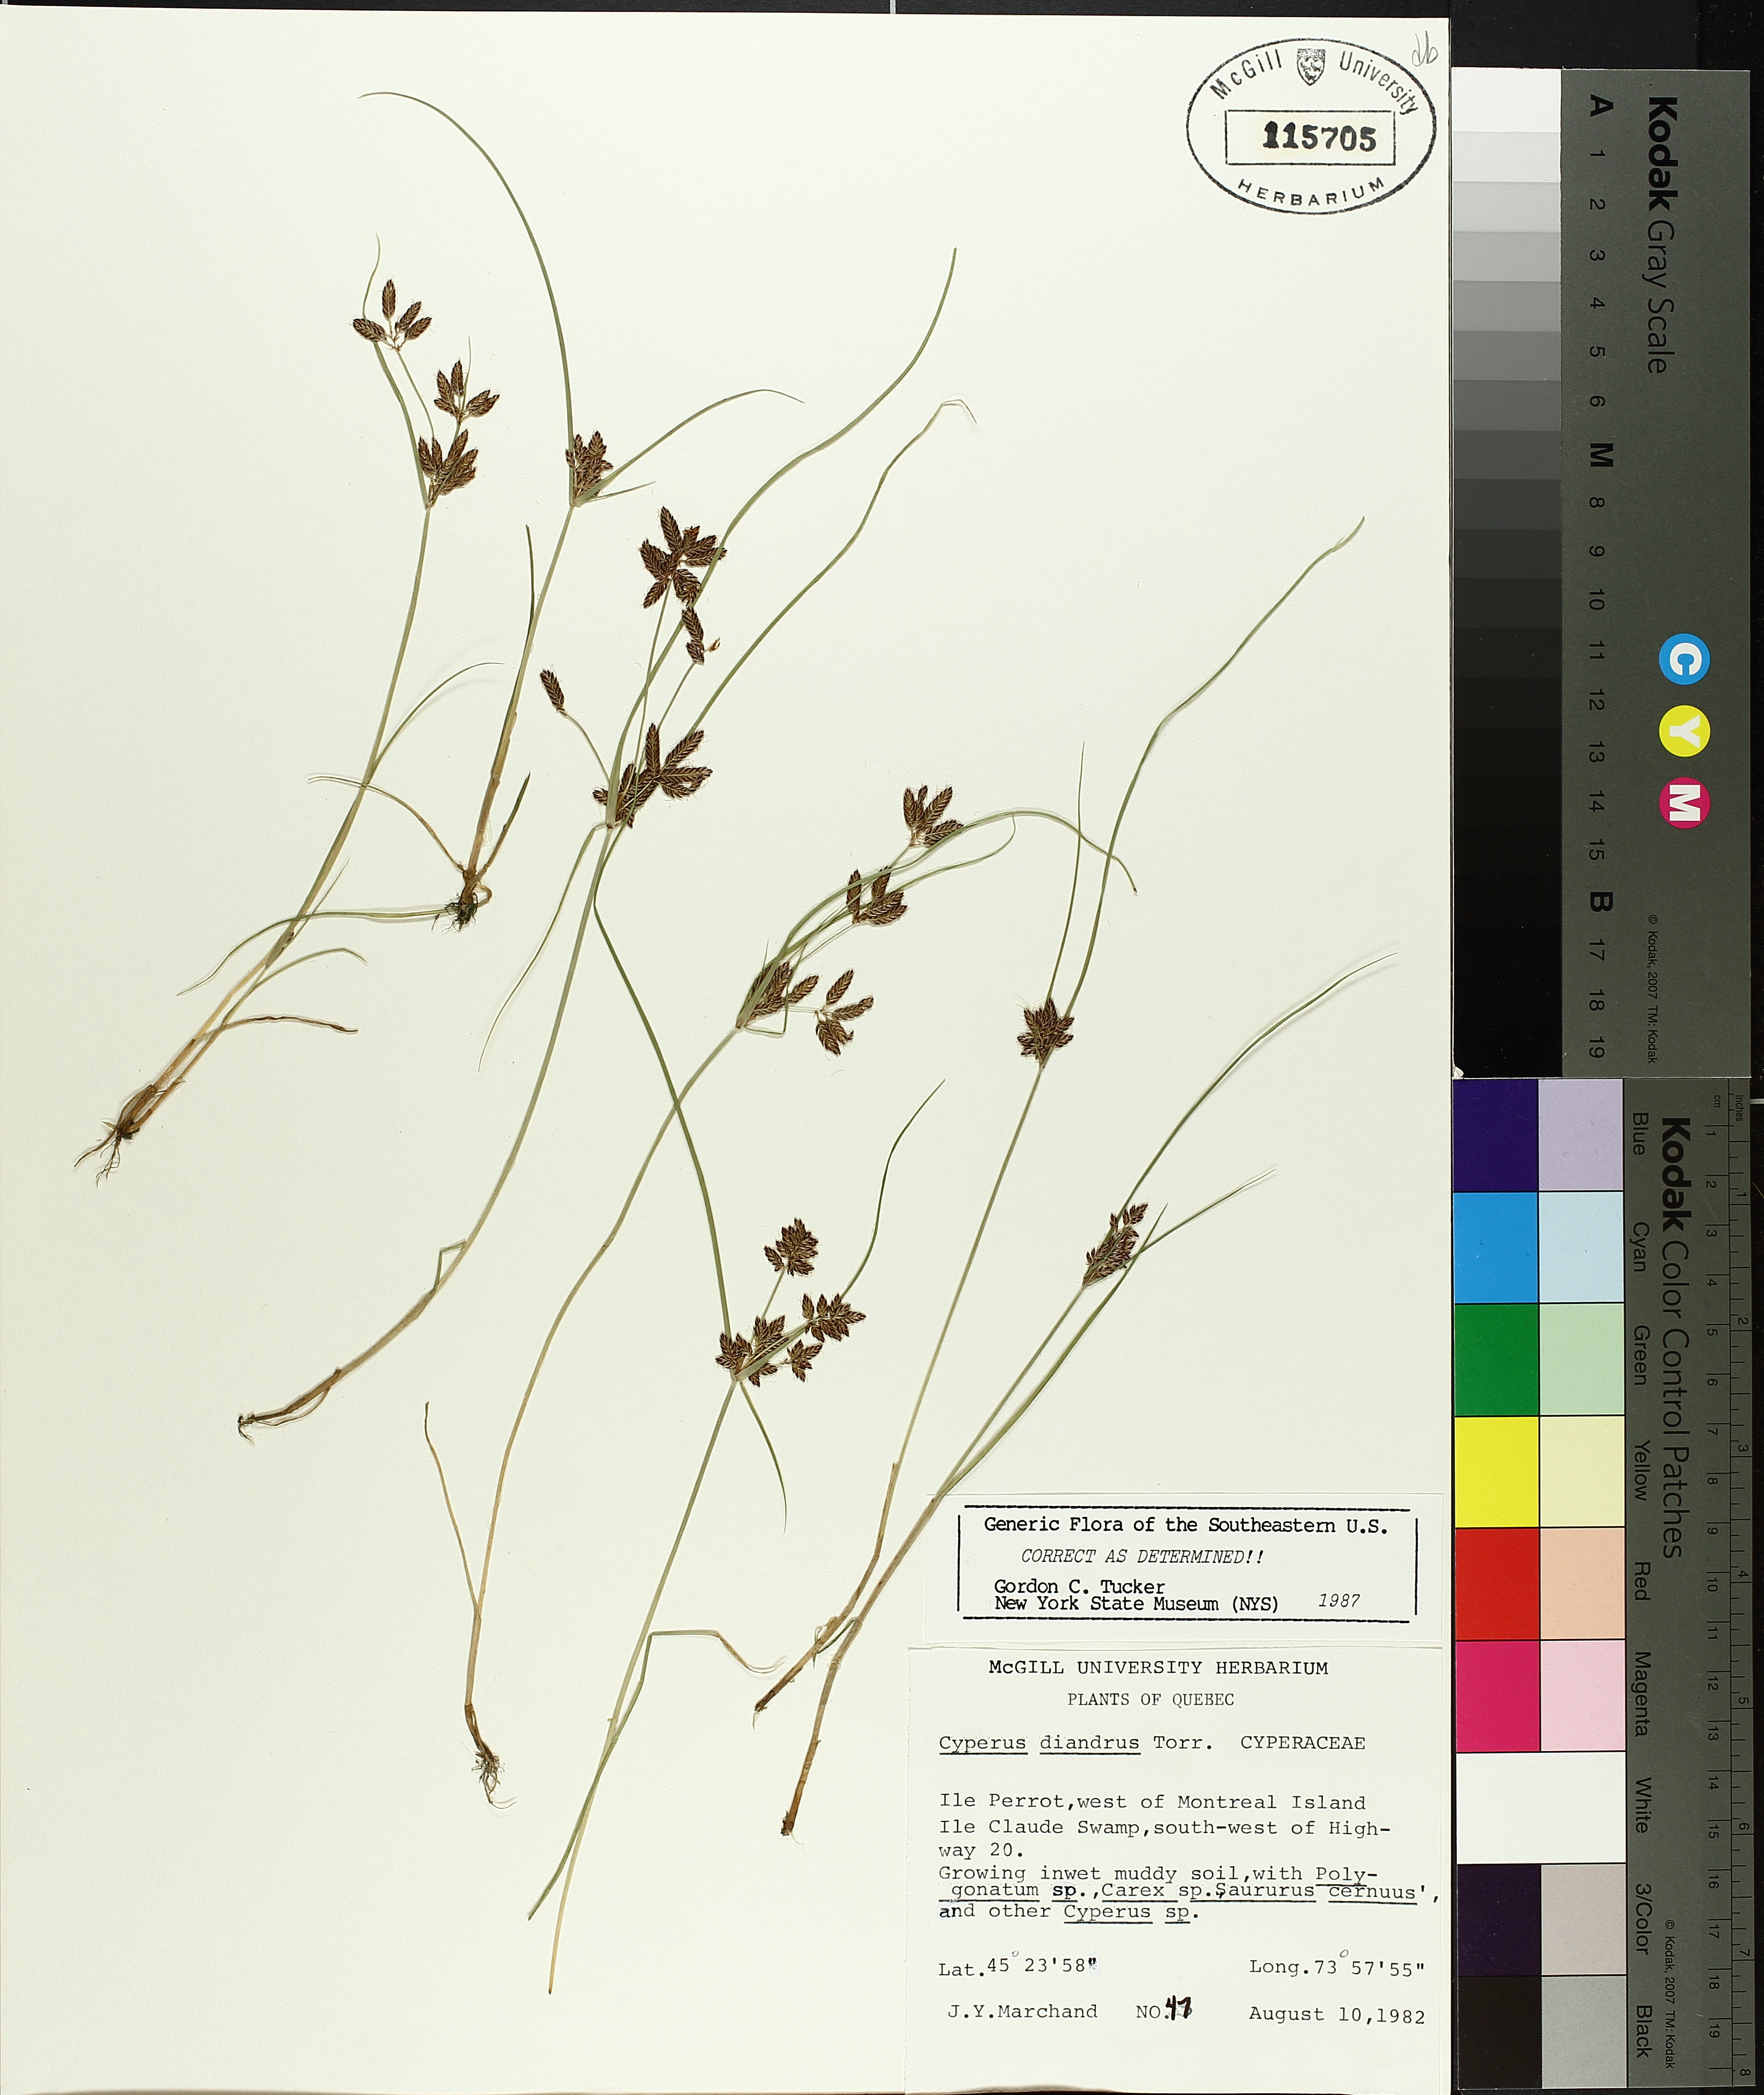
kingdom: Plantae
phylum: Tracheophyta
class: Liliopsida
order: Poales
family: Cyperaceae
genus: Cyperus
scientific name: Cyperus diandrus
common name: Low cyperus
